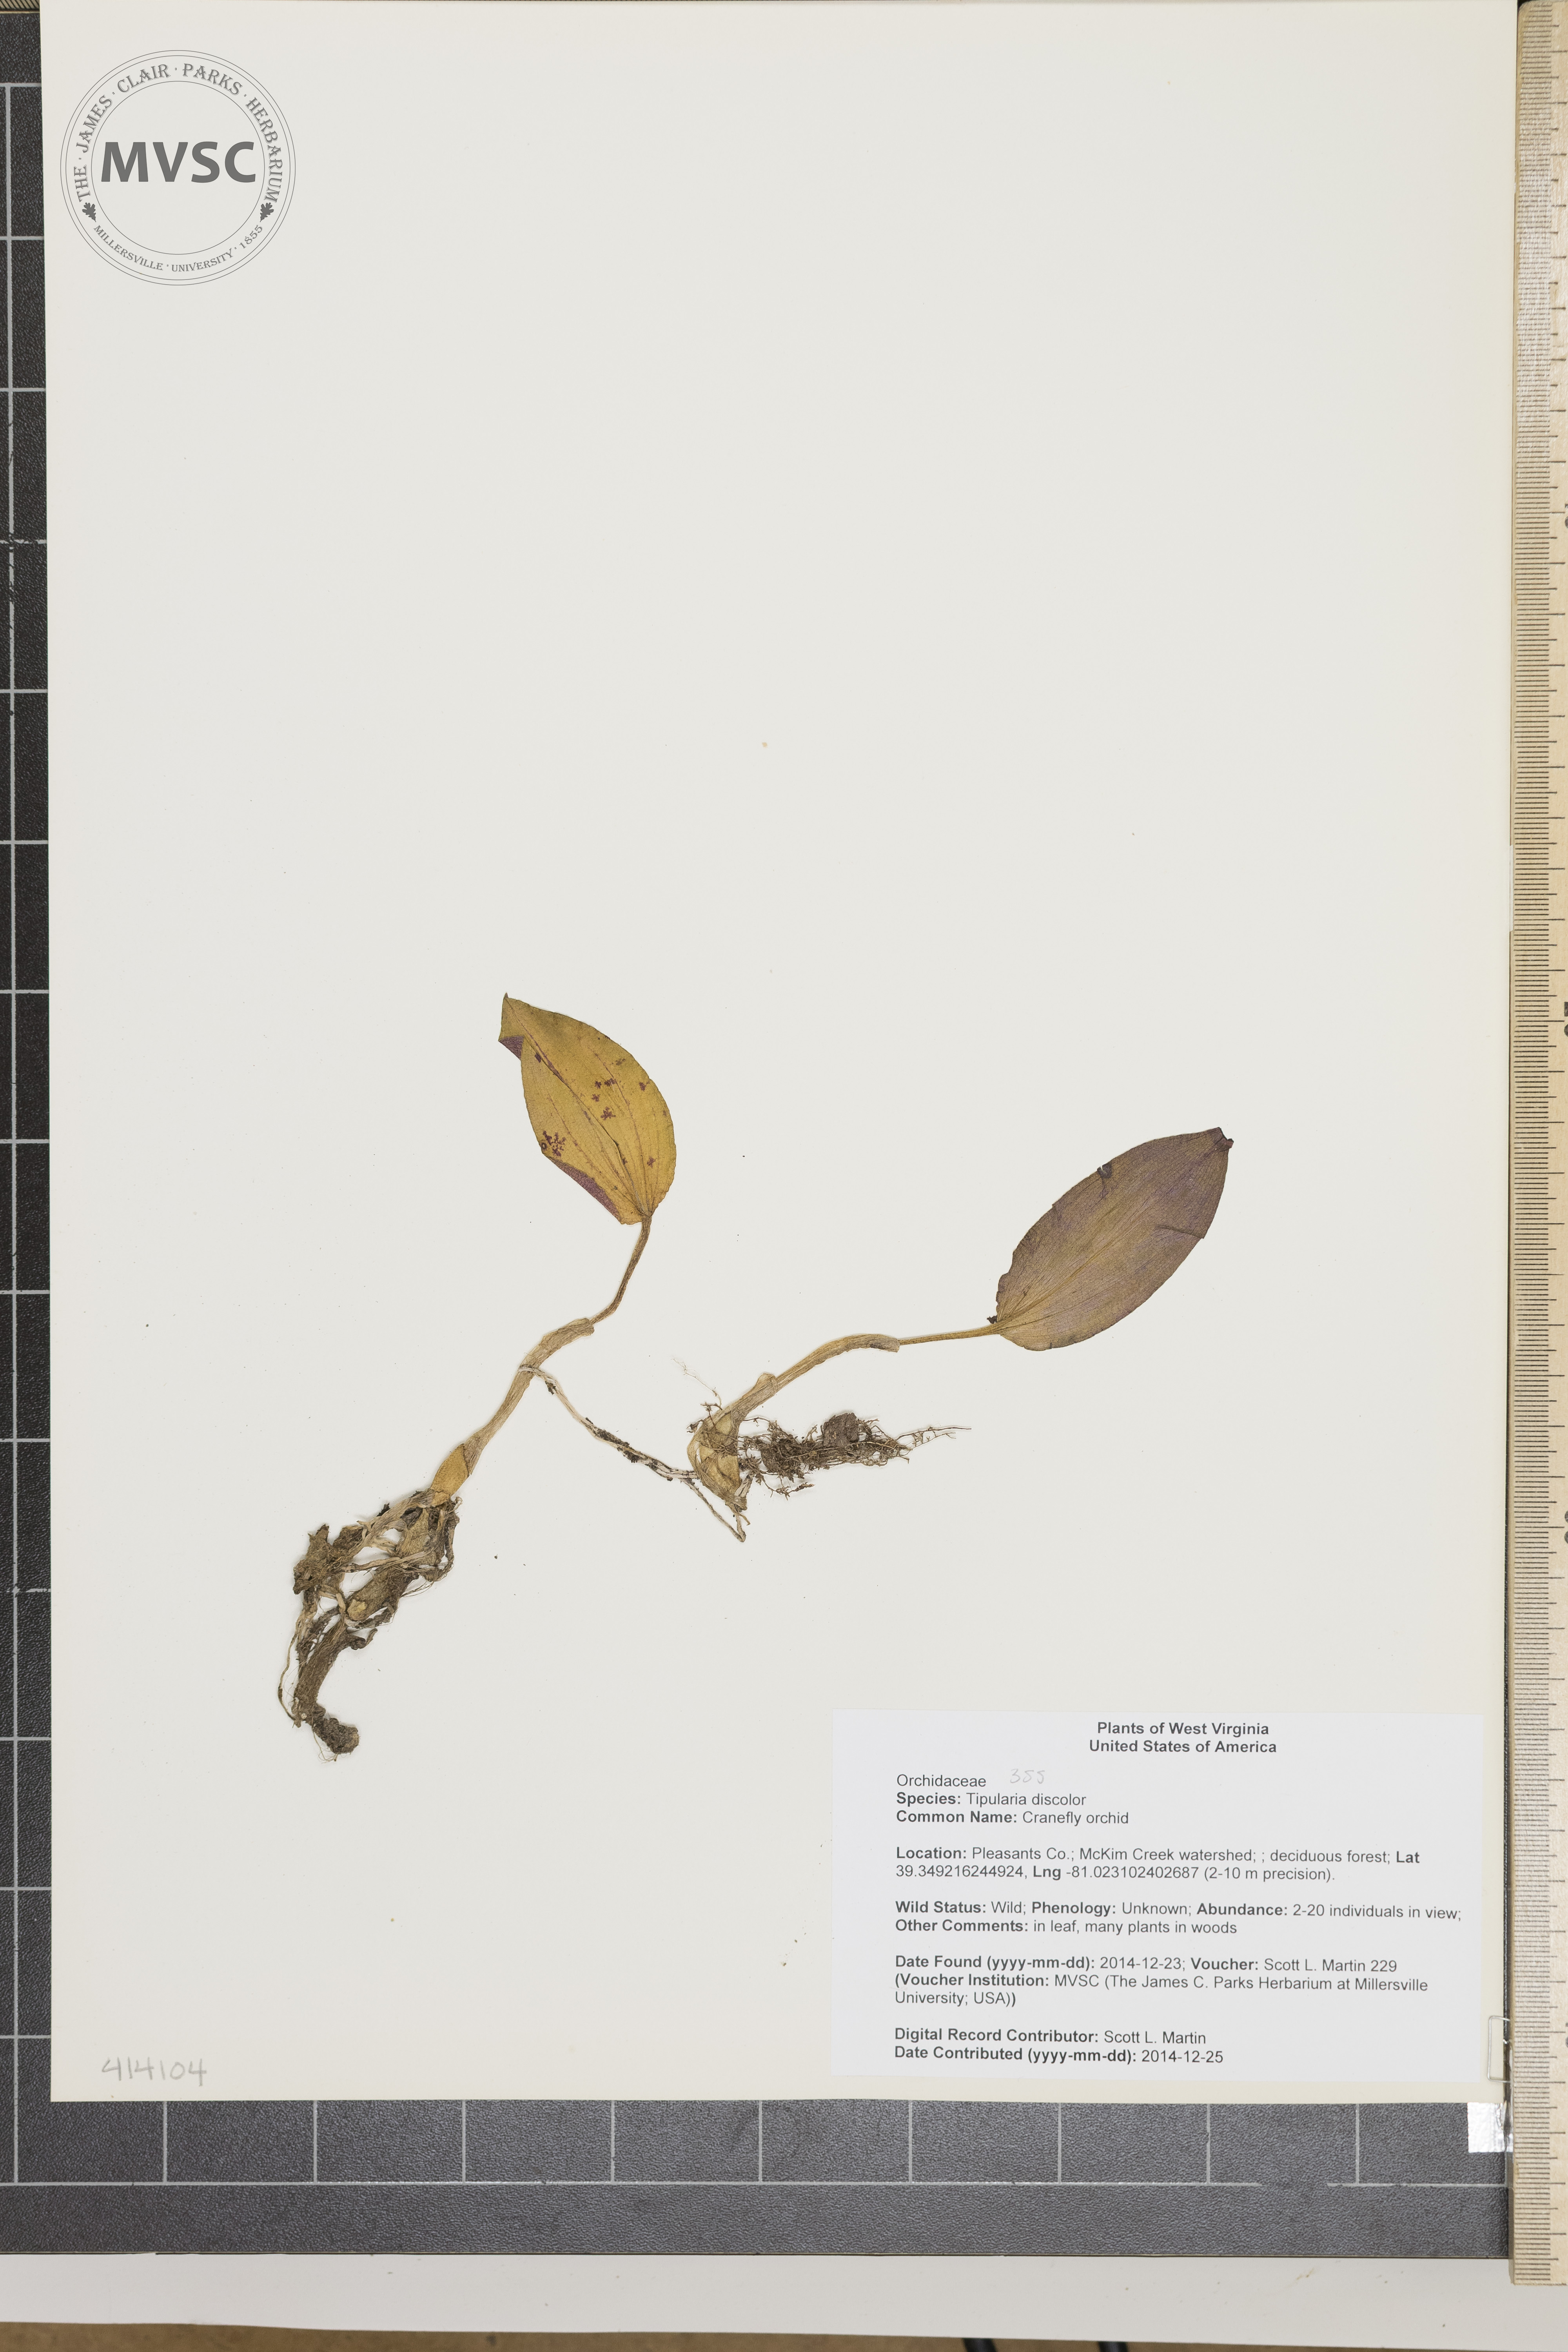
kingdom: Plantae
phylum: Tracheophyta
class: Liliopsida
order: Asparagales
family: Orchidaceae
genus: Tipularia
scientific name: Tipularia discolor
